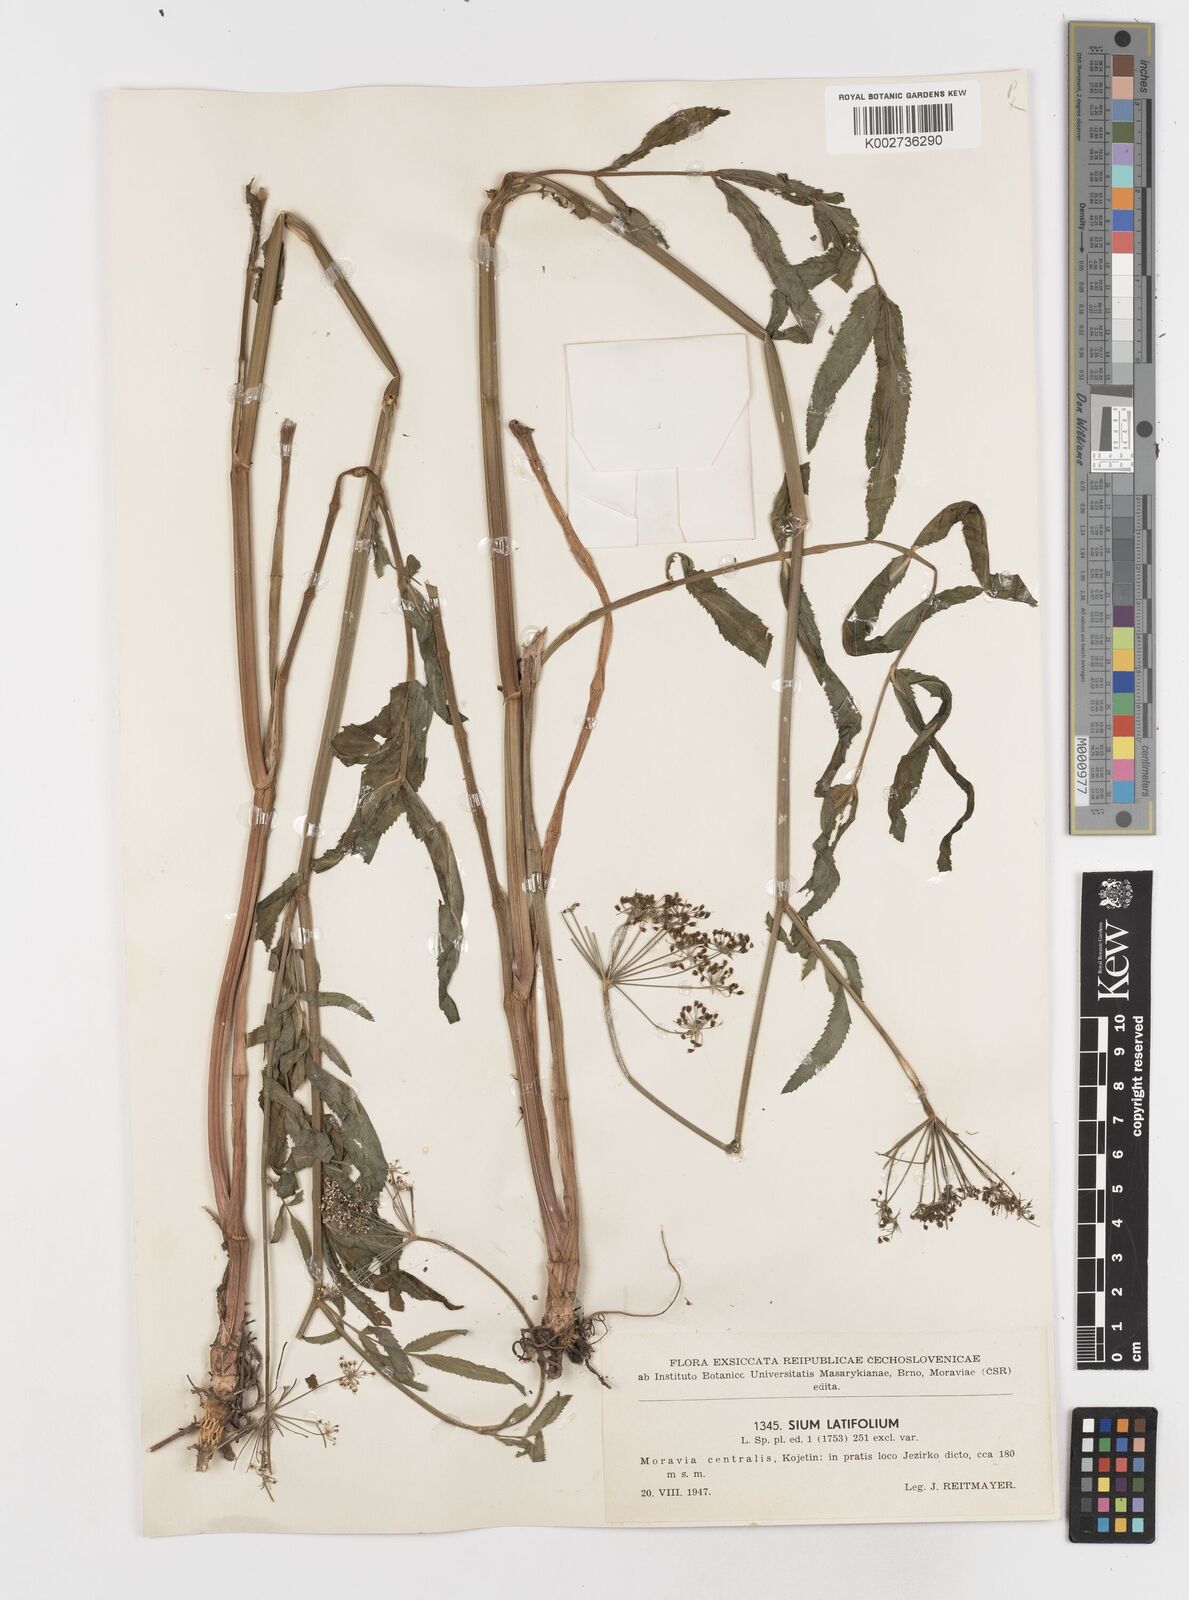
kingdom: Plantae
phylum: Tracheophyta
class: Magnoliopsida
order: Apiales
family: Apiaceae
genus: Sium
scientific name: Sium latifolium
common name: Greater water-parsnip
